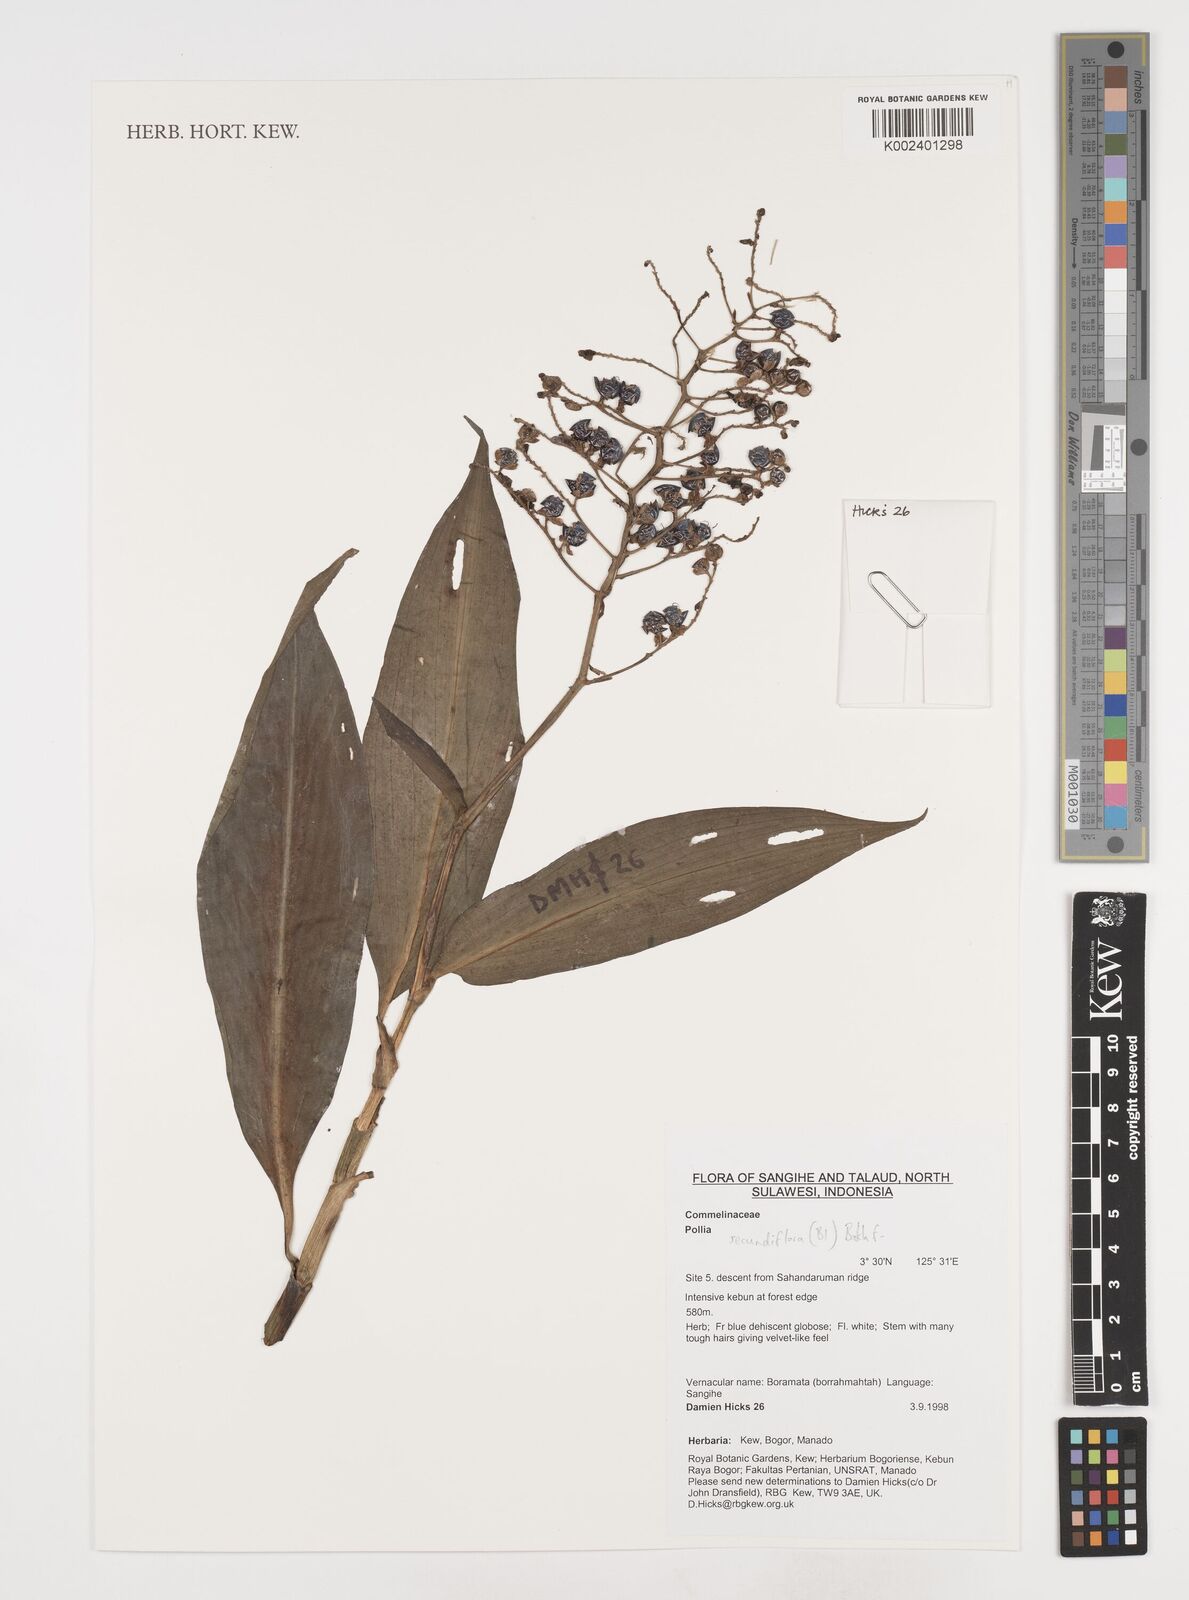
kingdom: Plantae
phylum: Tracheophyta
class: Liliopsida
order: Commelinales
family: Commelinaceae
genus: Pollia
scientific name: Pollia secundiflora
